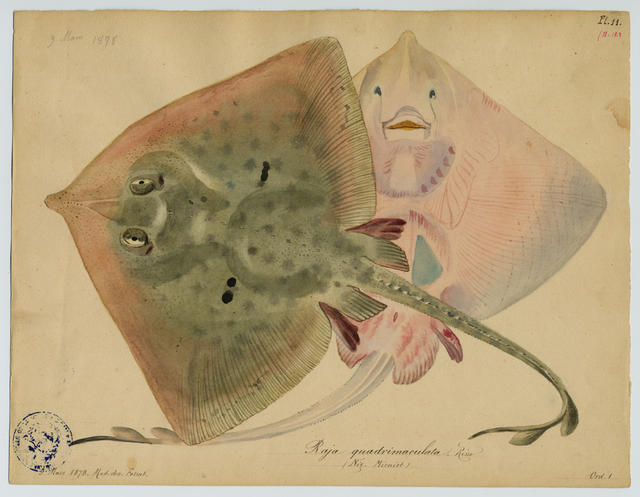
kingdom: Animalia
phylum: Chordata
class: Elasmobranchii
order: Rajiformes
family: Rajidae
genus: Raja
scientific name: Raja clavata
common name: Thornback ray
